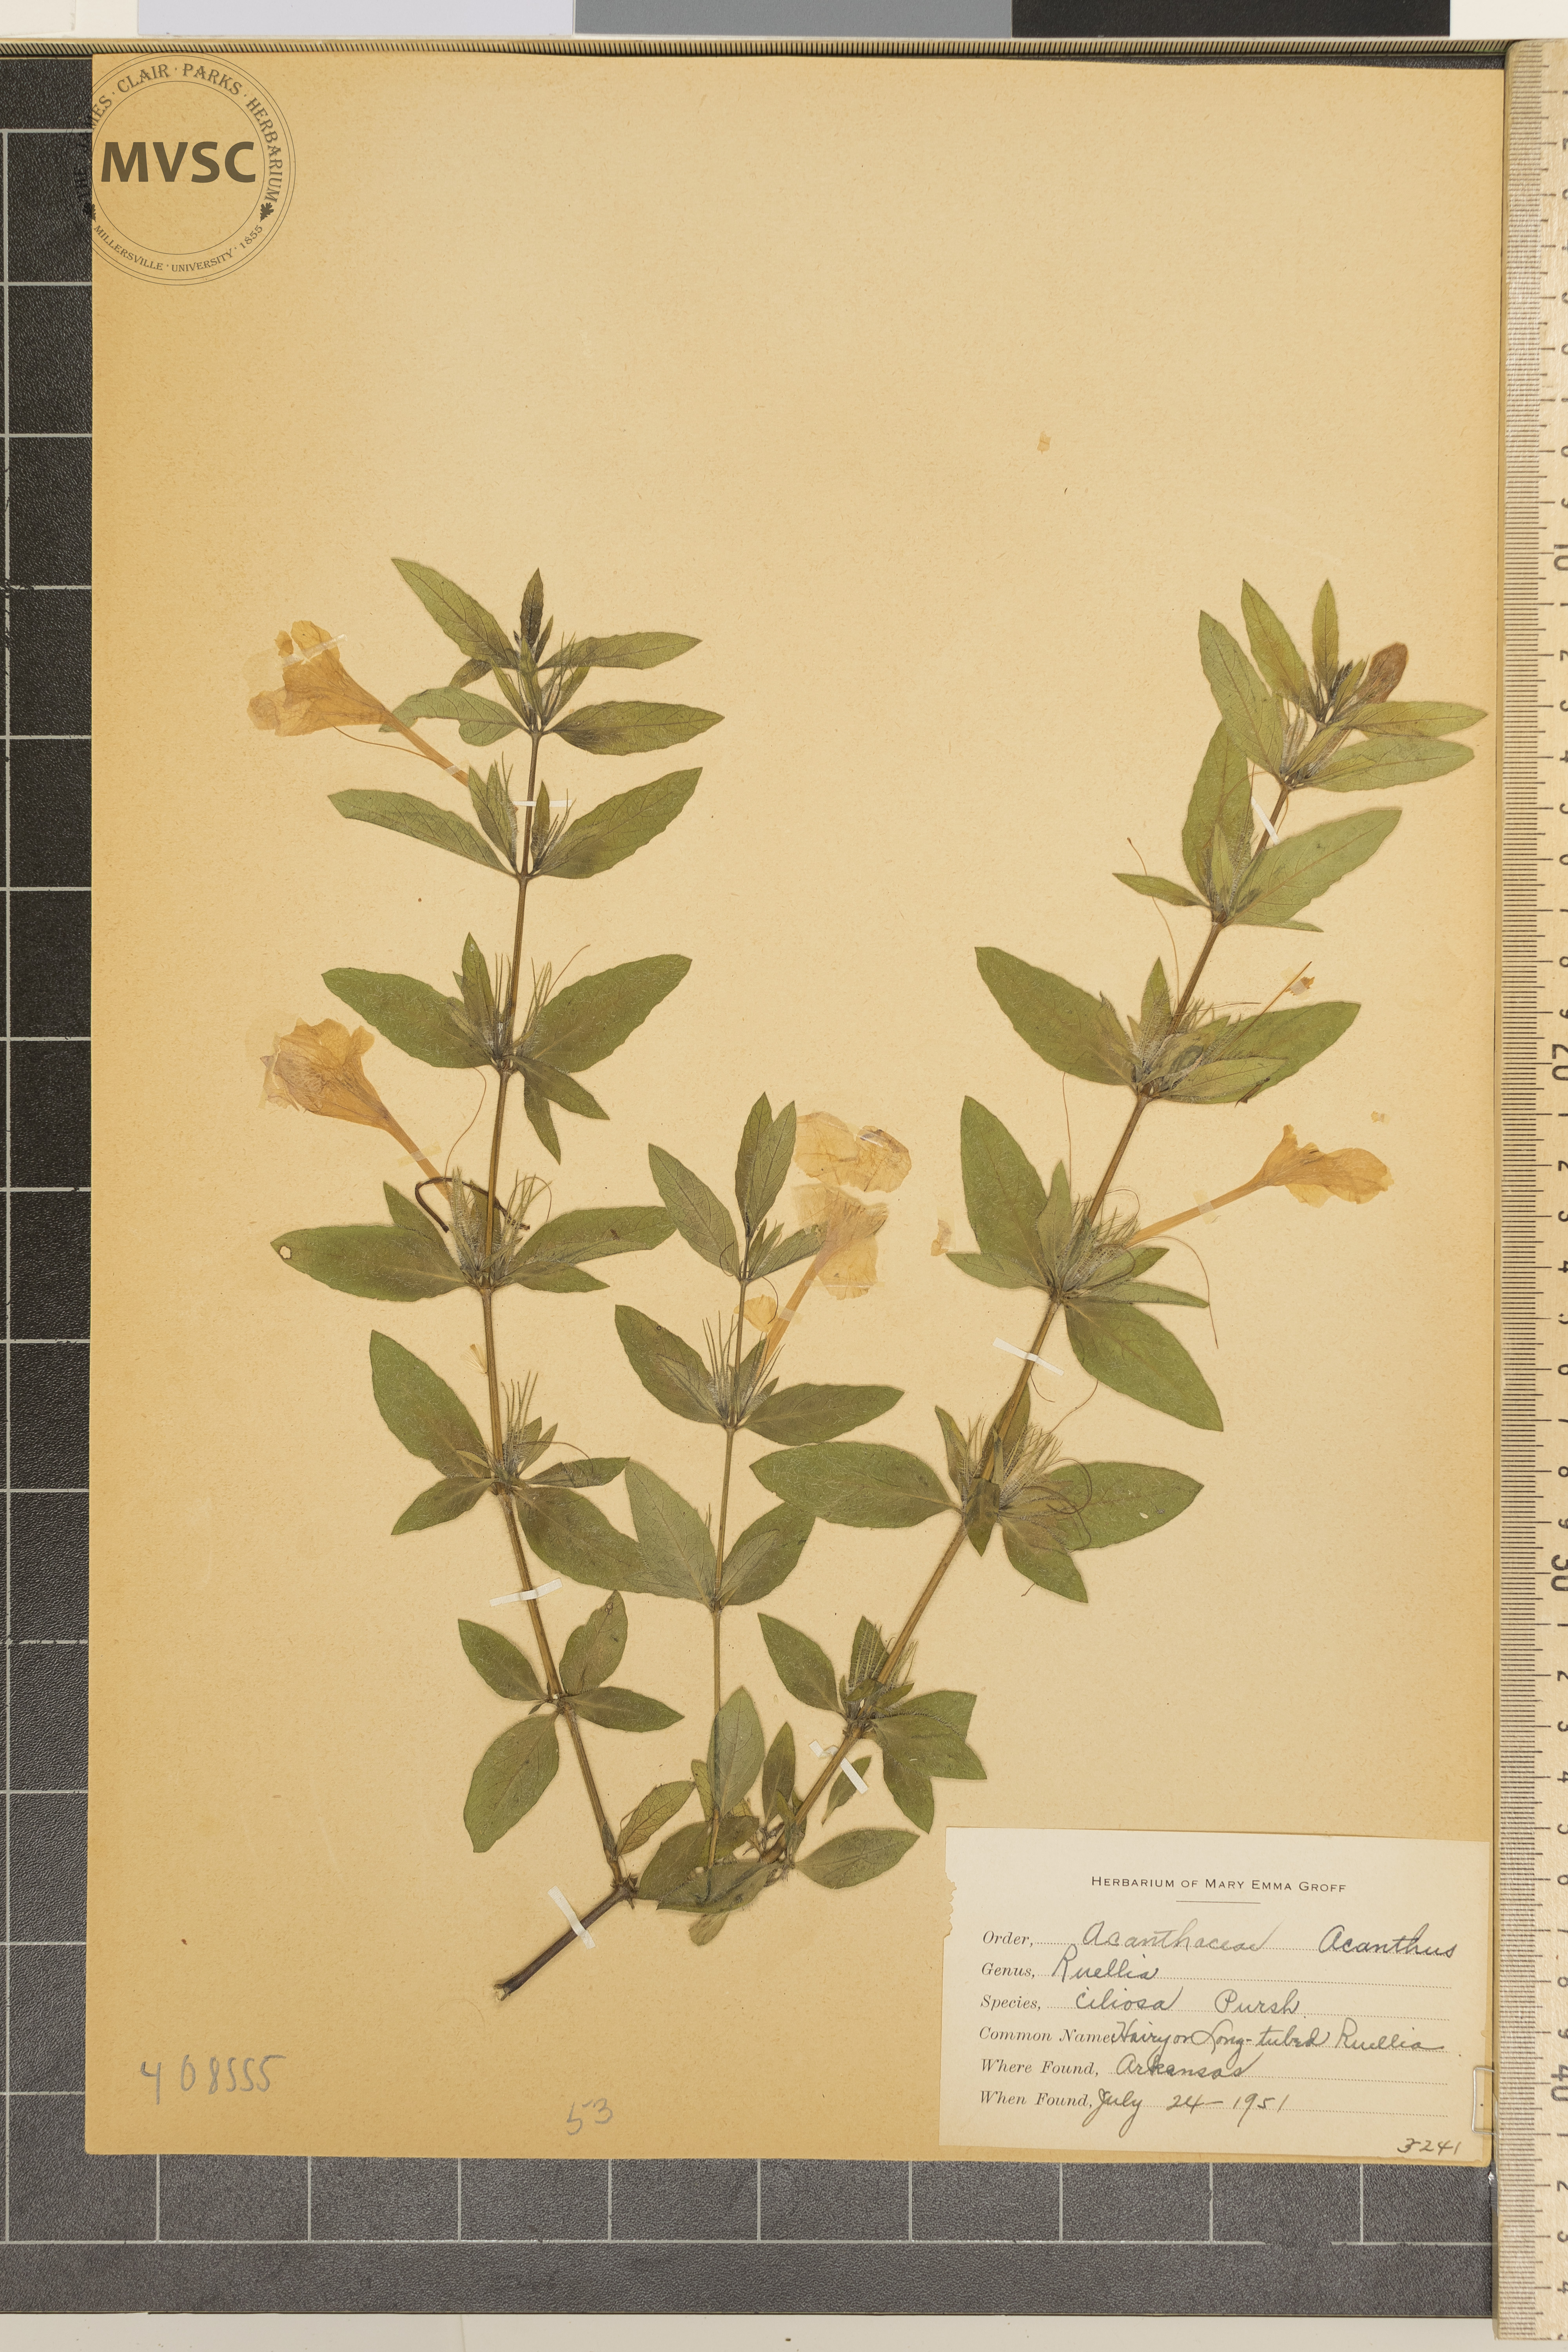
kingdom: Plantae
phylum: Tracheophyta
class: Magnoliopsida
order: Lamiales
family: Acanthaceae
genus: Ruellia
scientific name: Ruellia caroliniensis
